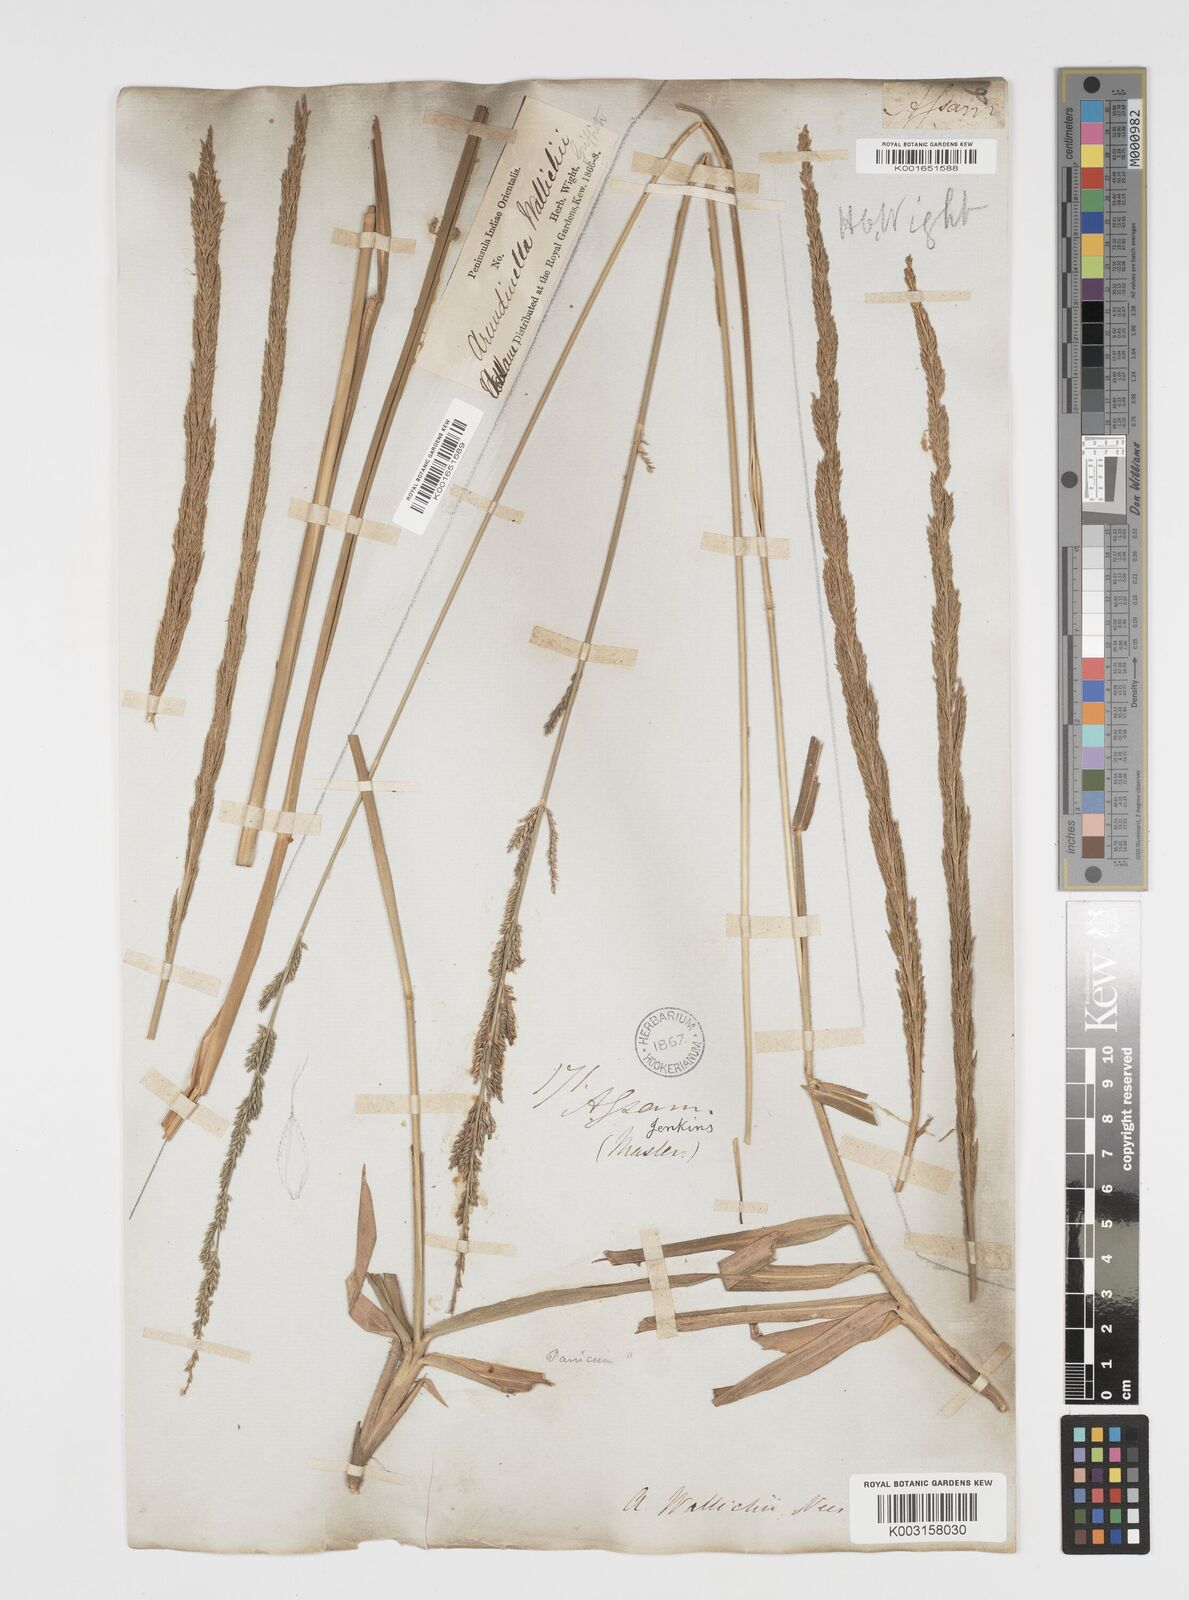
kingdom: Plantae
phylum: Tracheophyta
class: Liliopsida
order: Poales
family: Poaceae
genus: Arundinella
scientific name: Arundinella bengalensis
